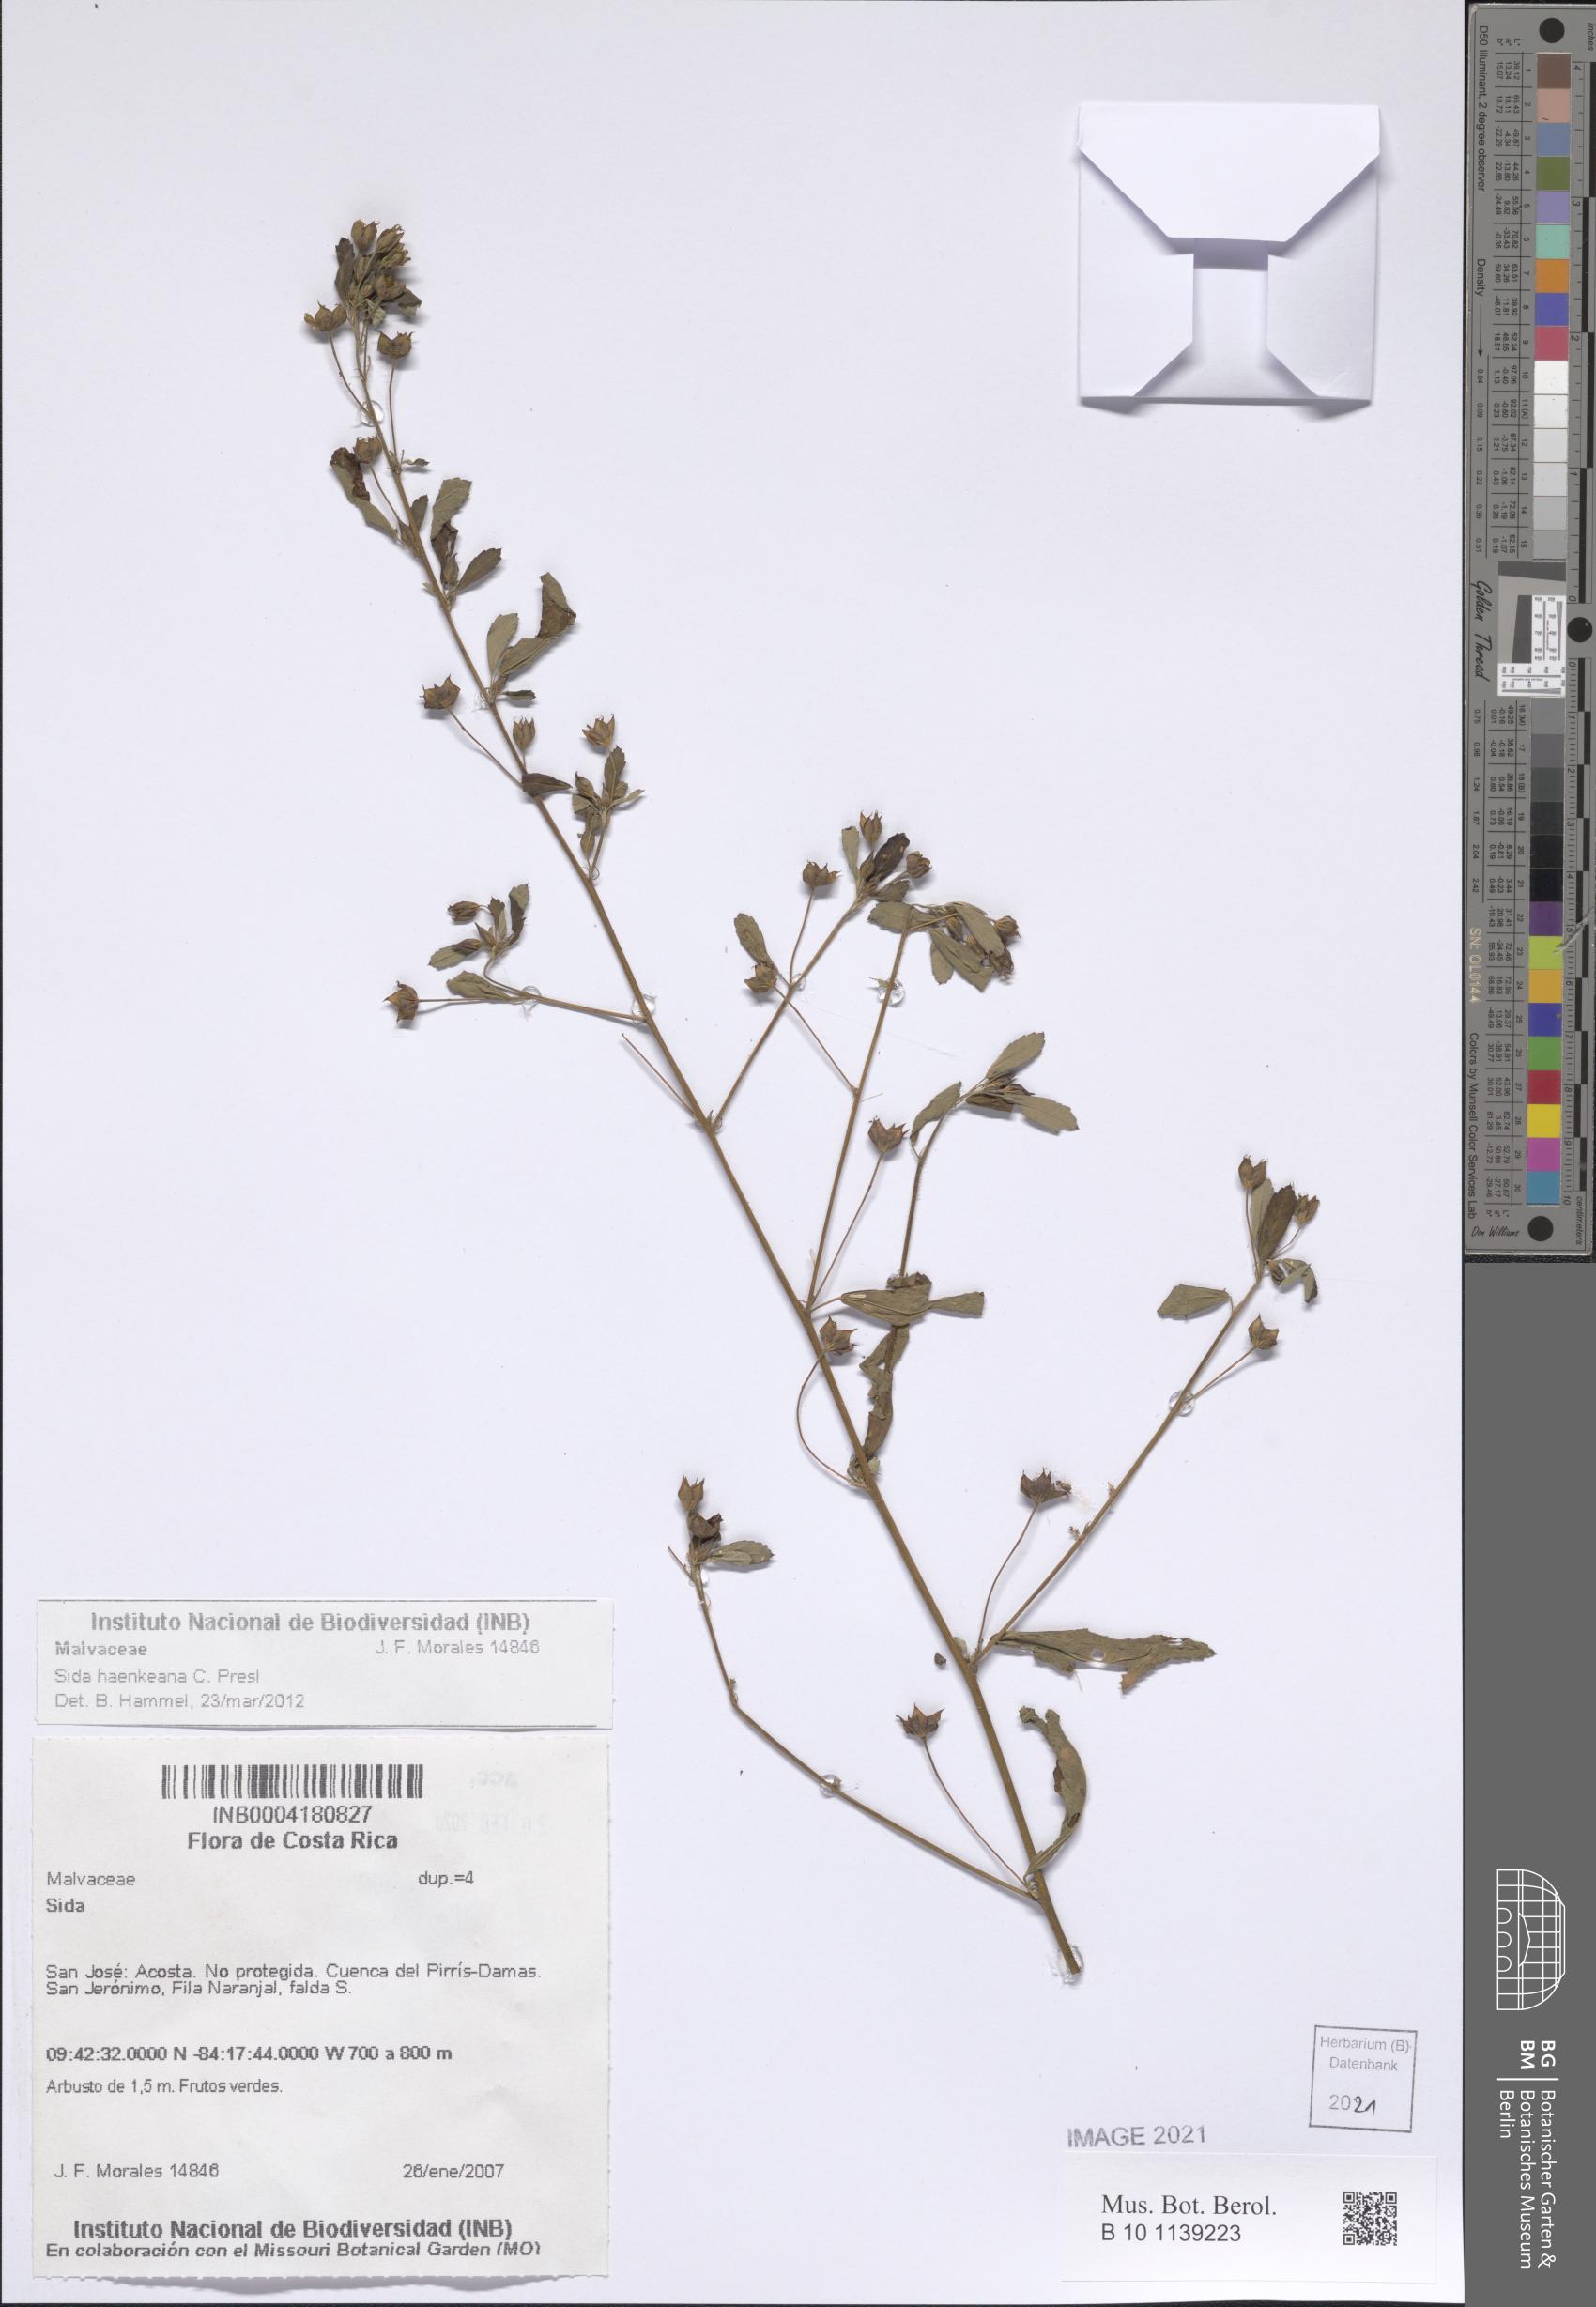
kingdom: Plantae
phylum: Tracheophyta
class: Magnoliopsida
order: Malvales
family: Malvaceae
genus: Sida
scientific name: Sida haenkeana
